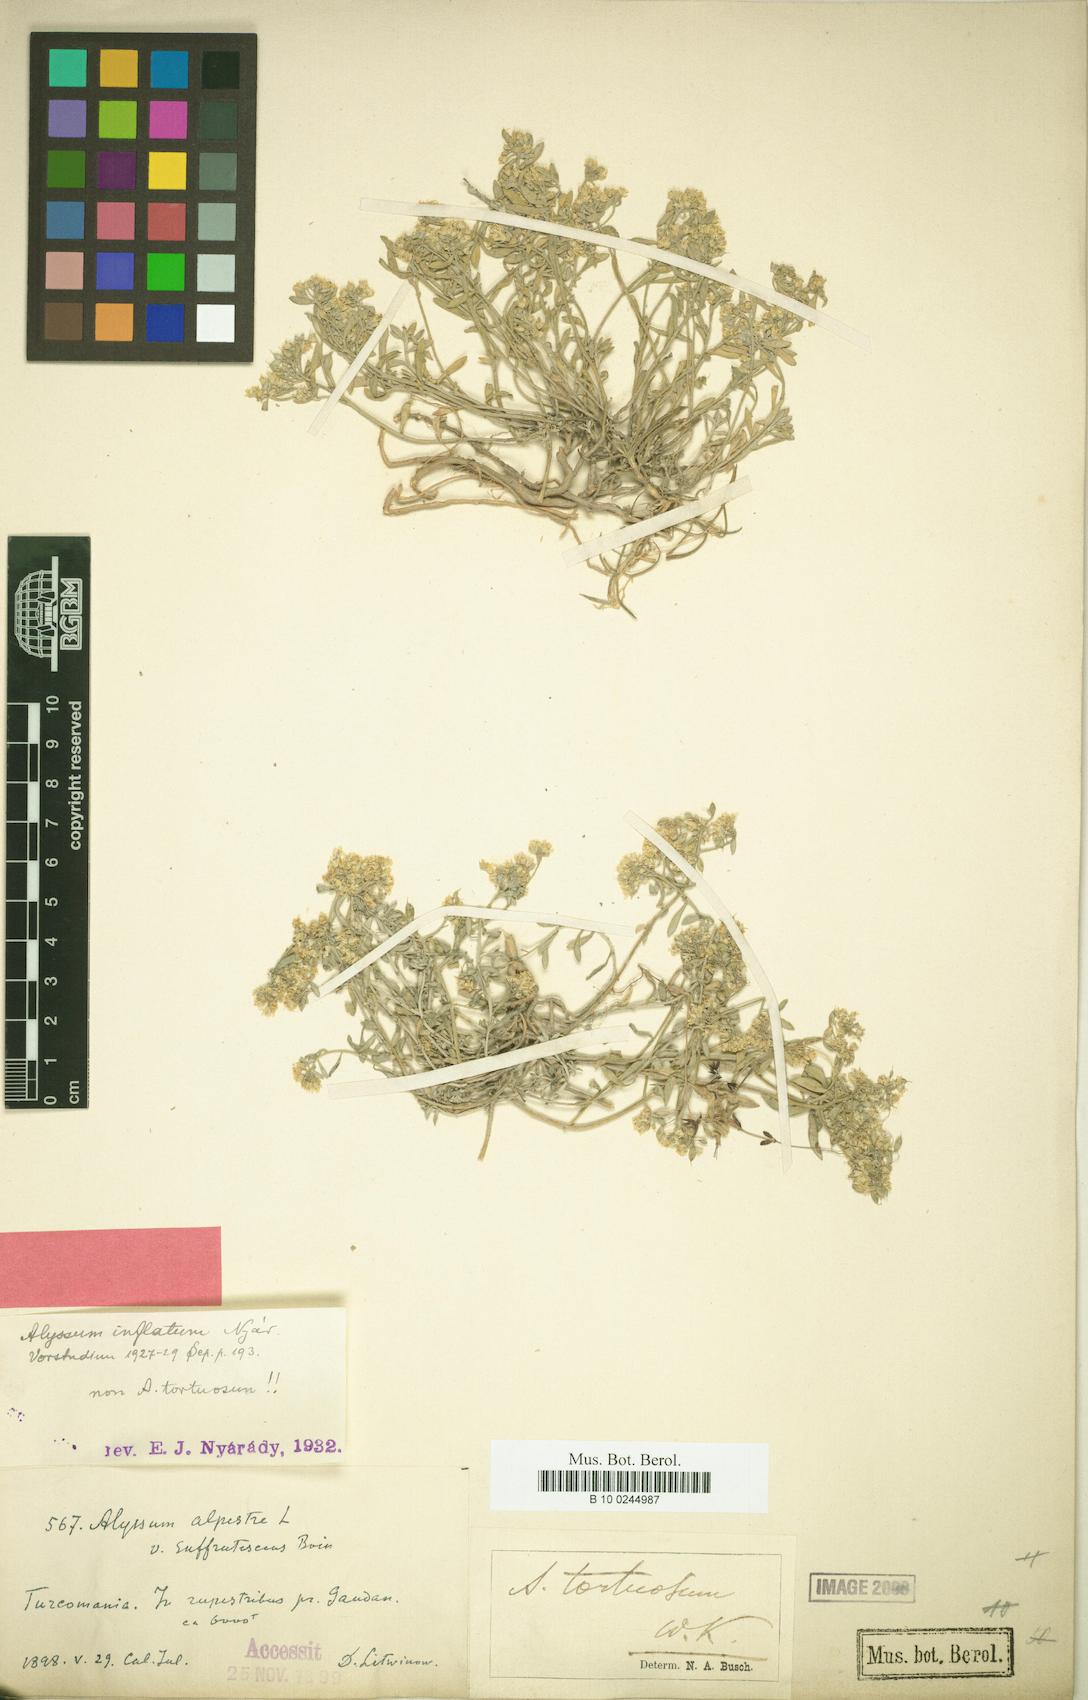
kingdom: Plantae
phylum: Tracheophyta
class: Magnoliopsida
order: Brassicales
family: Brassicaceae
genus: Odontarrhena
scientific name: Odontarrhena inflata
